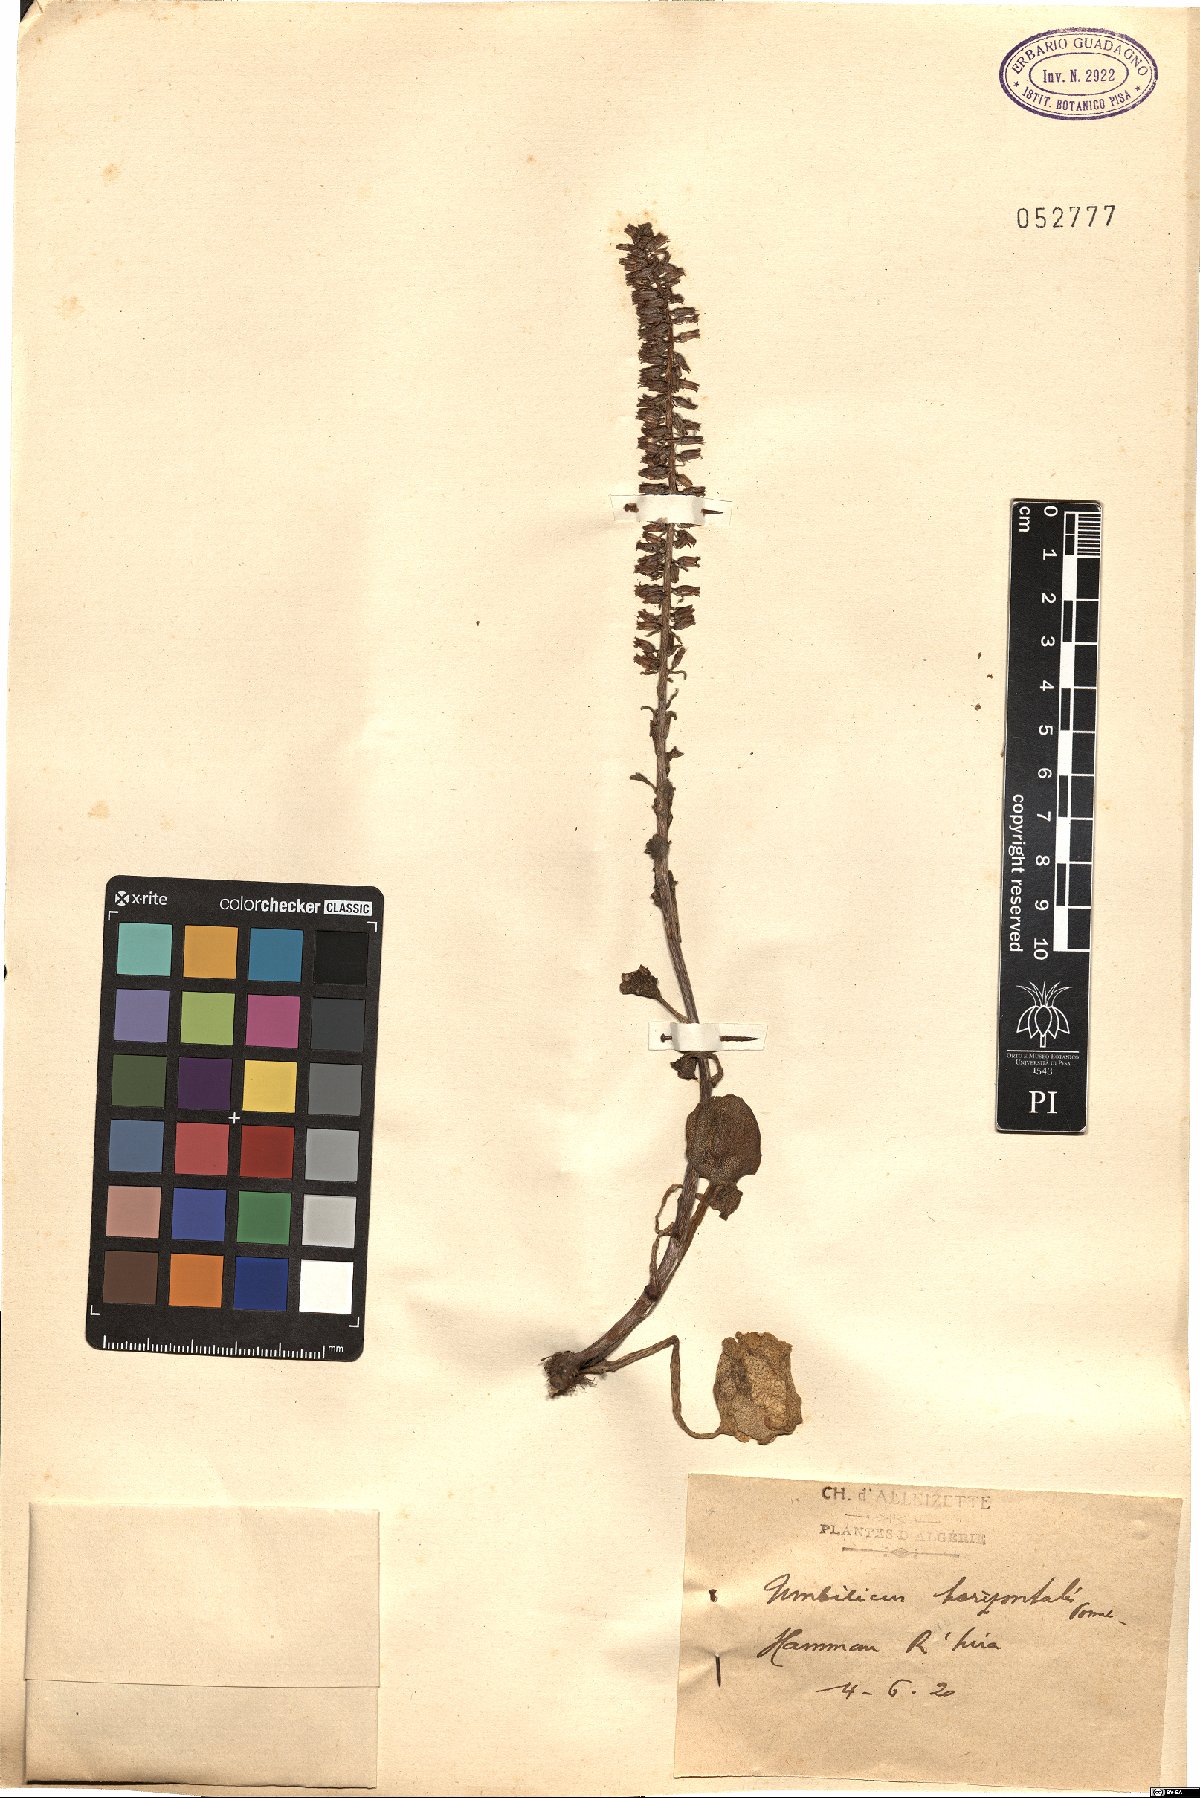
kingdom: Plantae
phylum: Tracheophyta
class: Magnoliopsida
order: Saxifragales
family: Crassulaceae
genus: Umbilicus
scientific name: Umbilicus horizontalis
